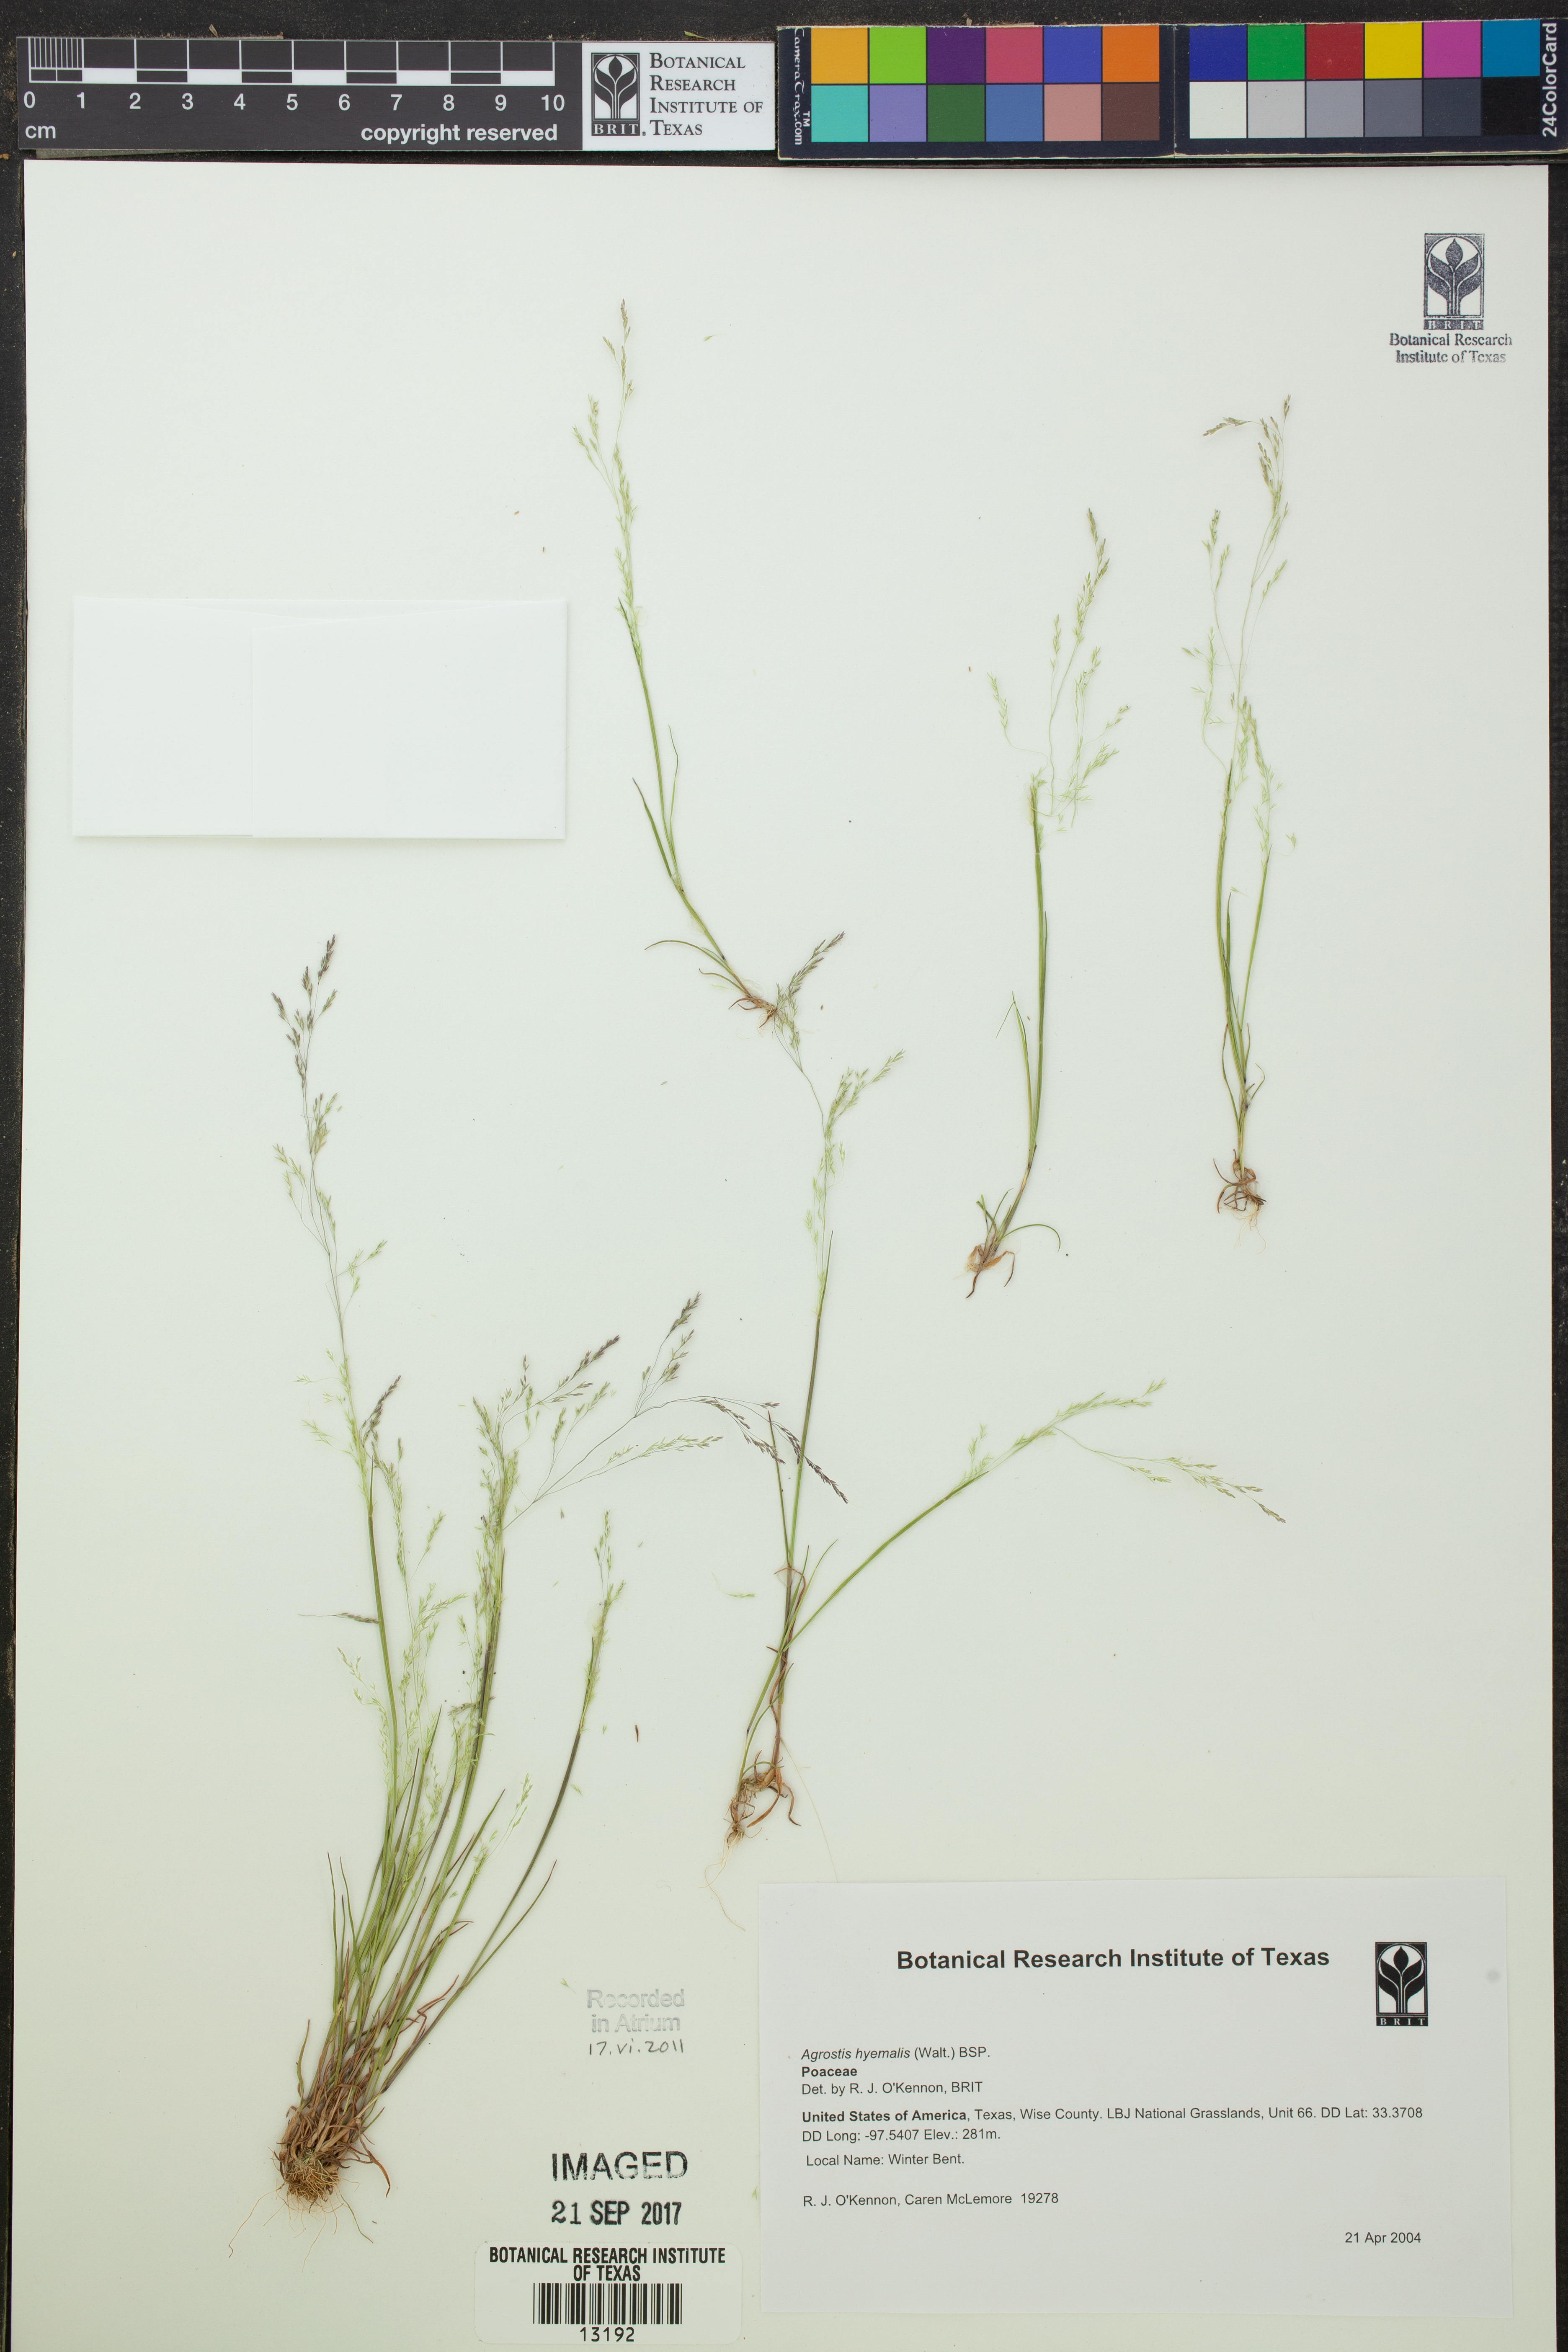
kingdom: Plantae
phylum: Tracheophyta
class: Liliopsida
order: Poales
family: Poaceae
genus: Agrostis
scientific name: Agrostis hyemalis
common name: Small bent
